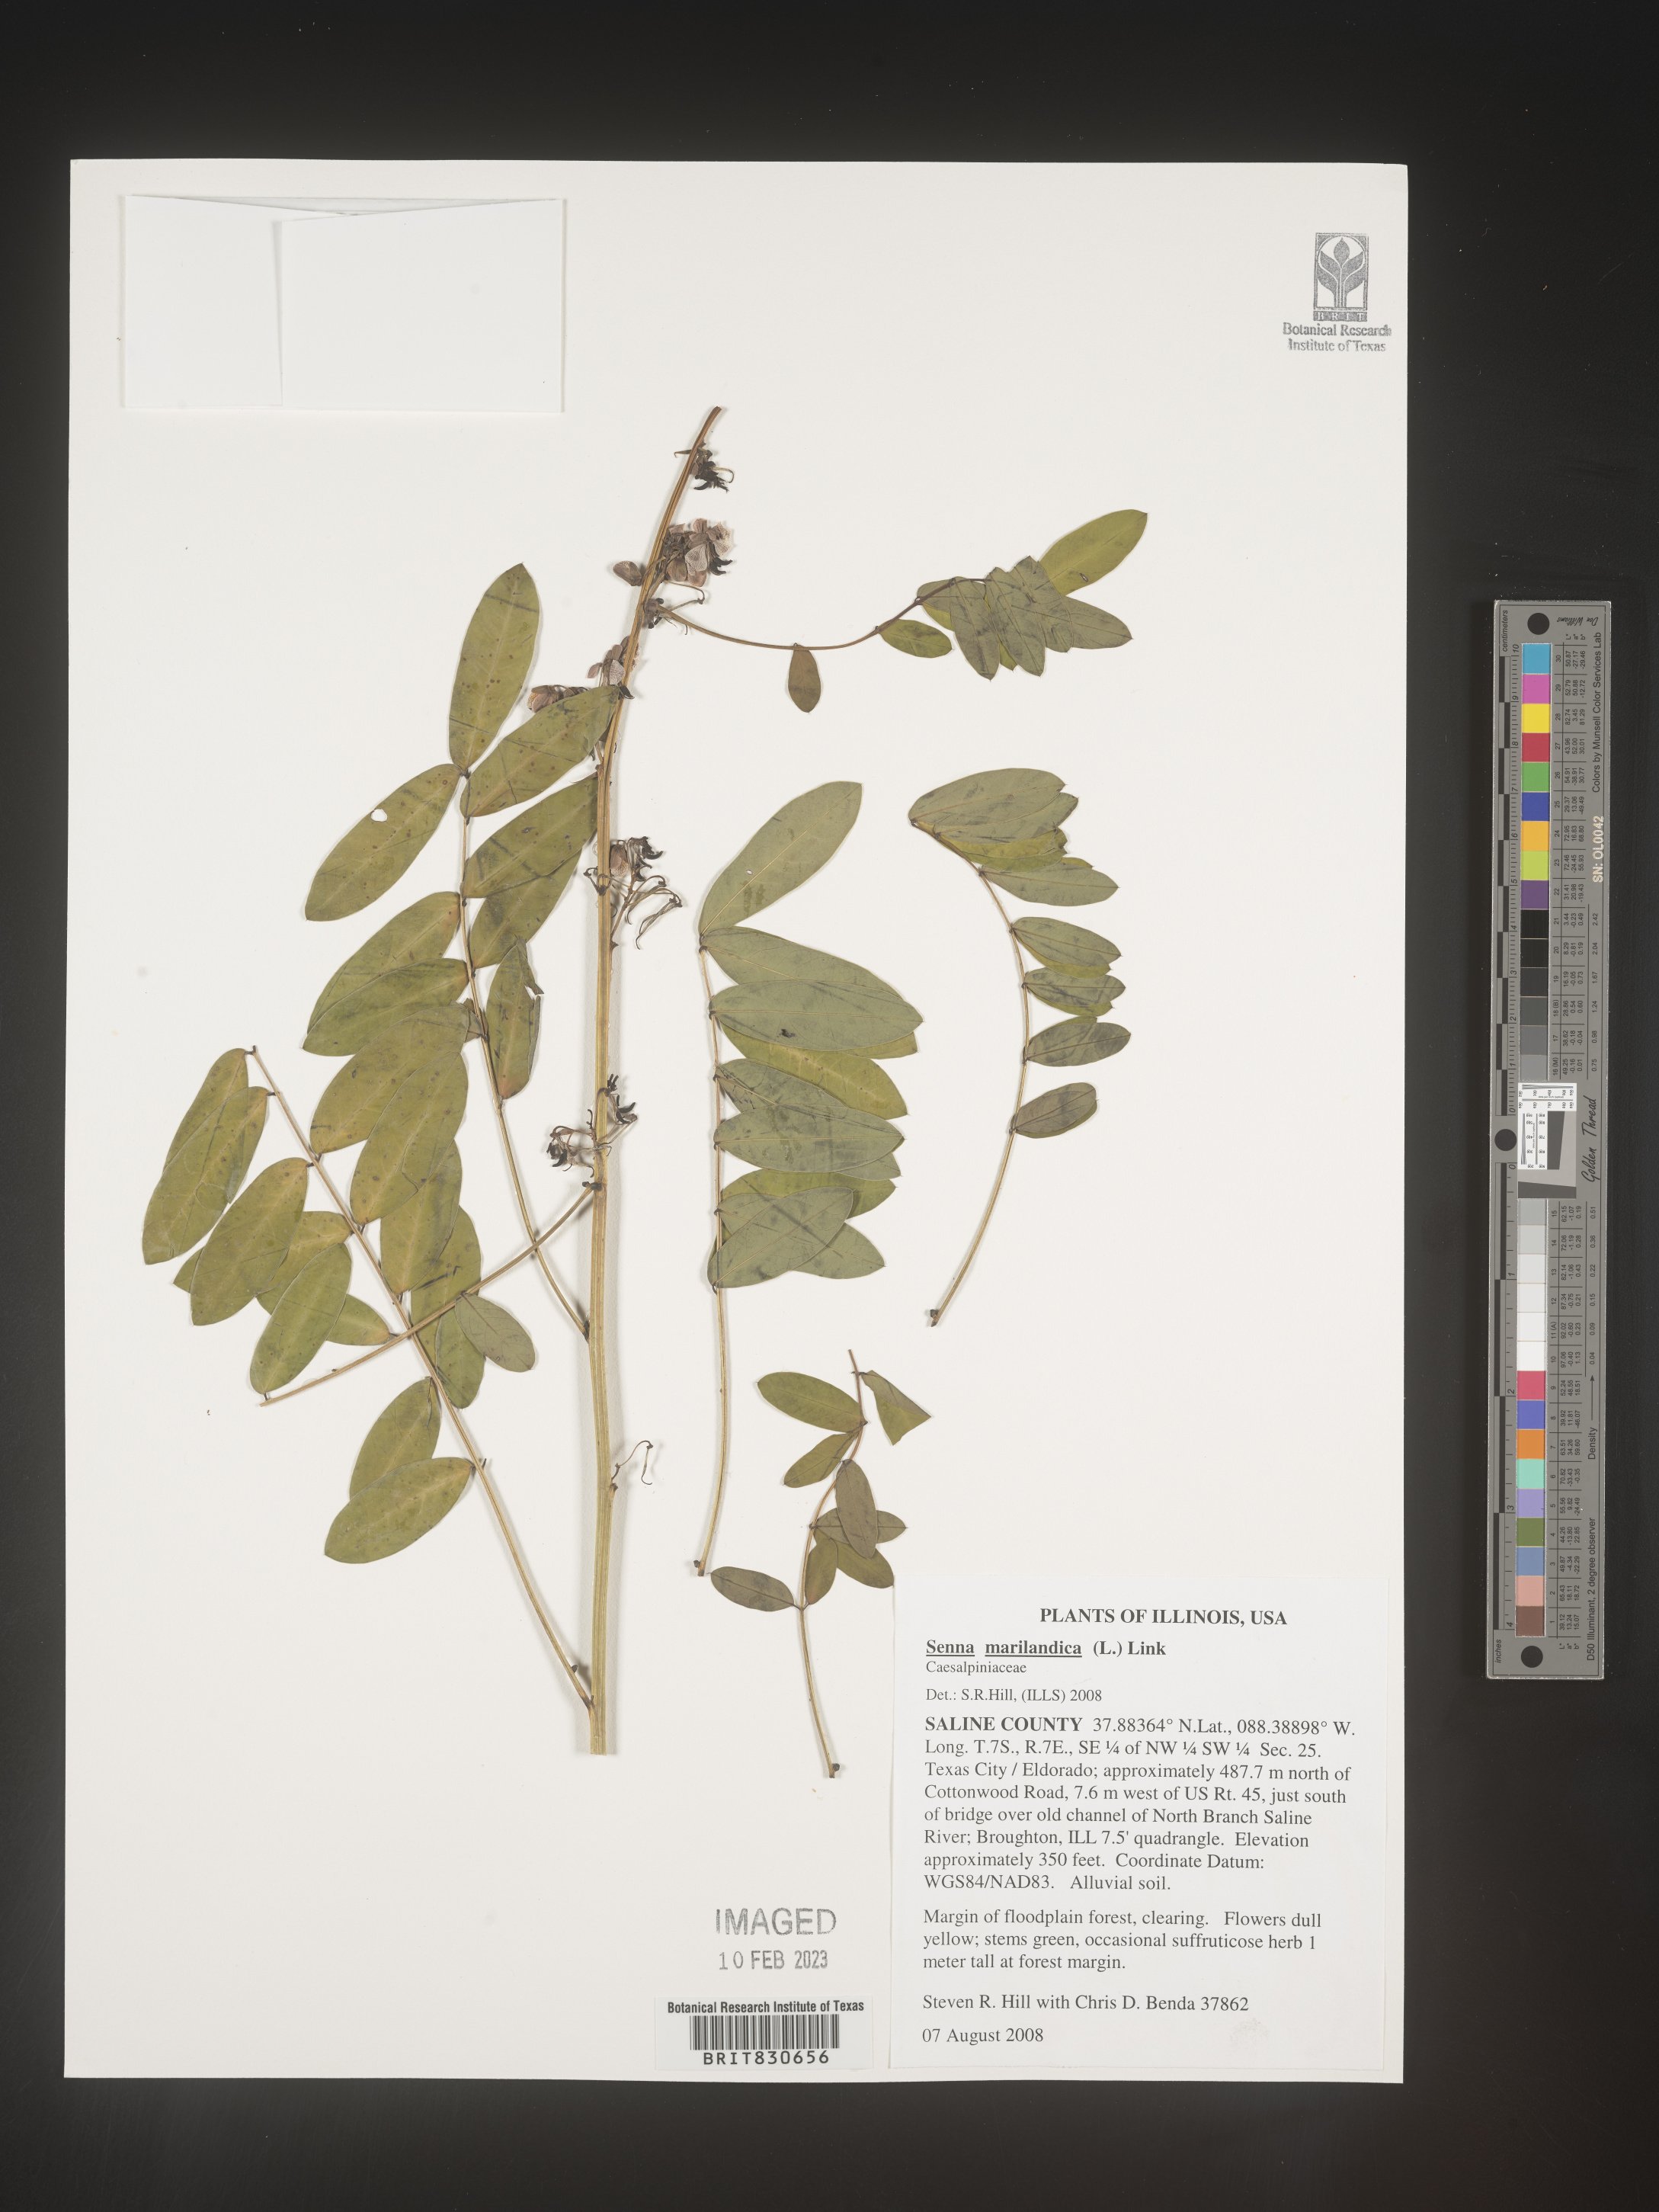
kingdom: Plantae
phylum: Tracheophyta
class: Magnoliopsida
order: Fabales
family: Fabaceae
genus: Senna
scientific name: Senna
